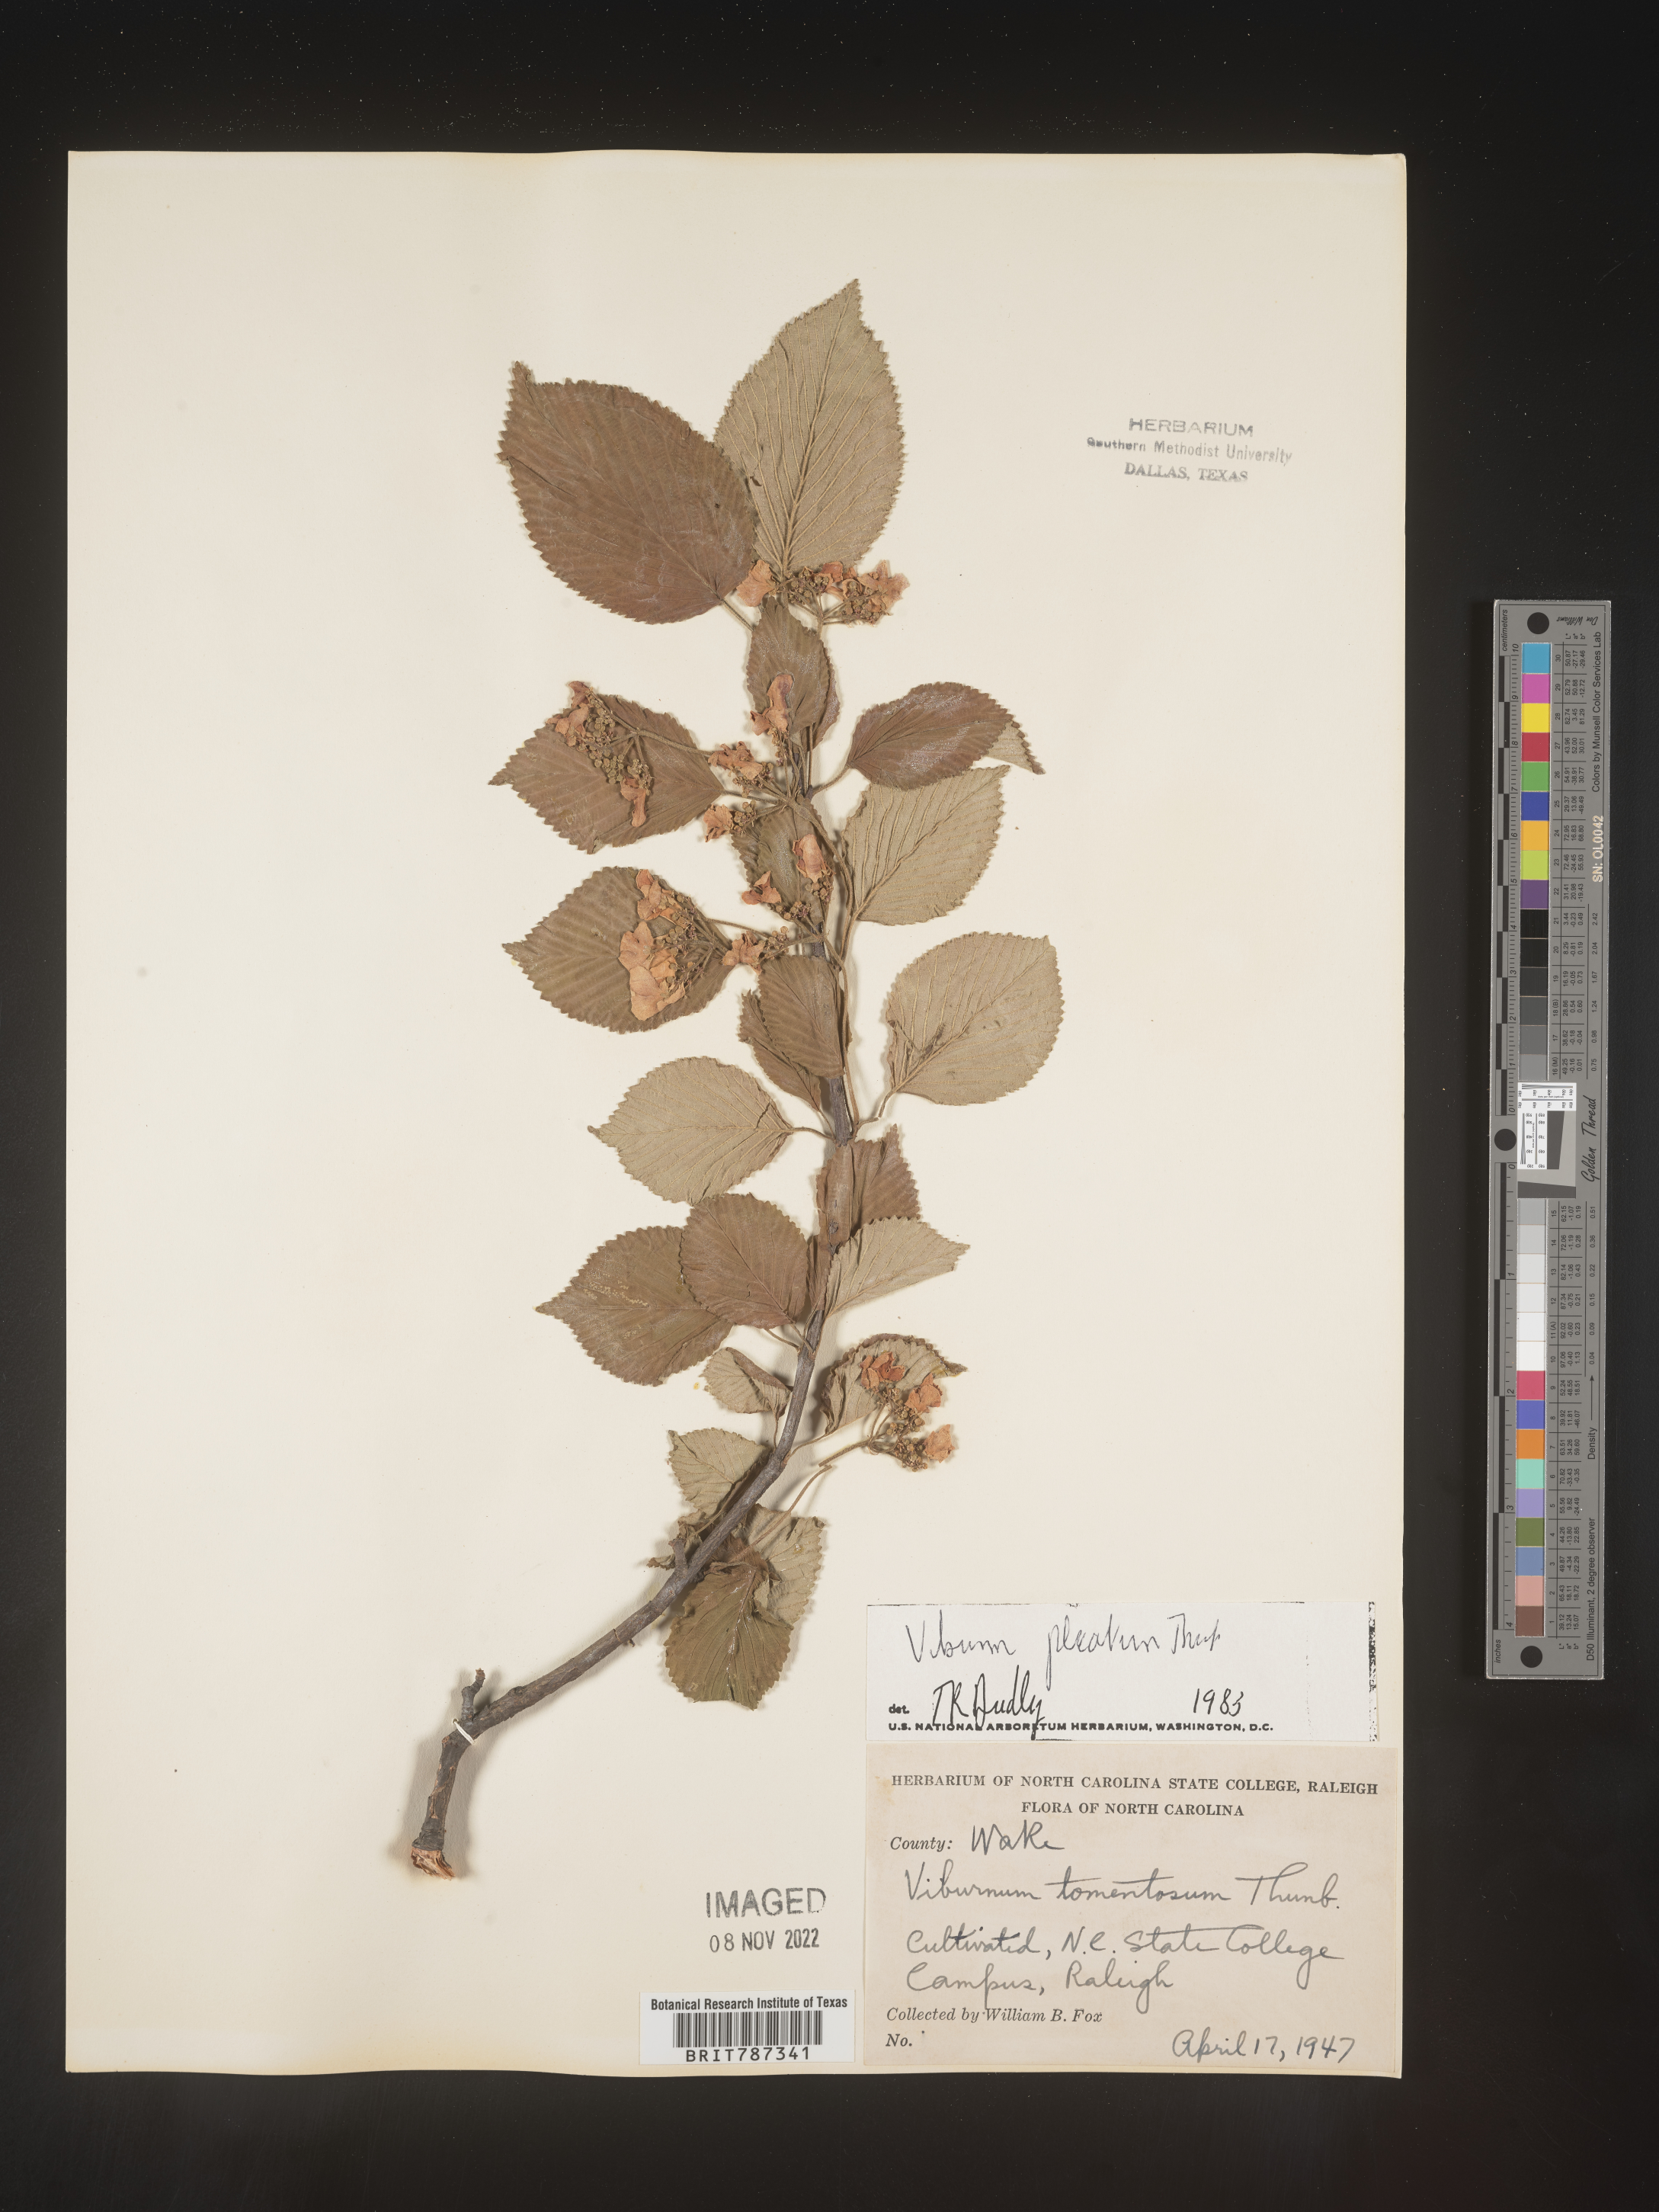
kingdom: Plantae
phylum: Tracheophyta
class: Magnoliopsida
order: Dipsacales
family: Viburnaceae
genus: Viburnum
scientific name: Viburnum
